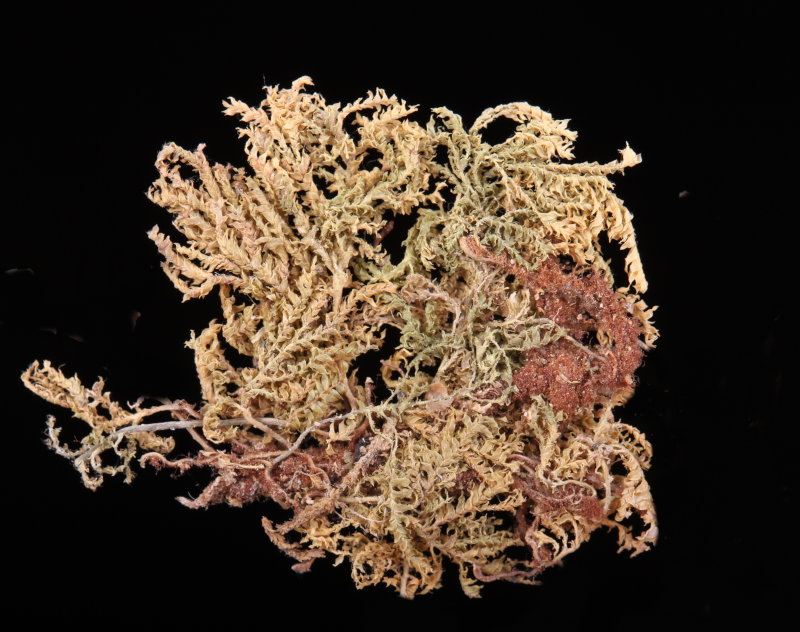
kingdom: Plantae
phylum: Bryophyta
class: Bryopsida
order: Hypopterygiales
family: Hypopterygiaceae
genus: Hypopterygium
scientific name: Hypopterygium tamarisci
